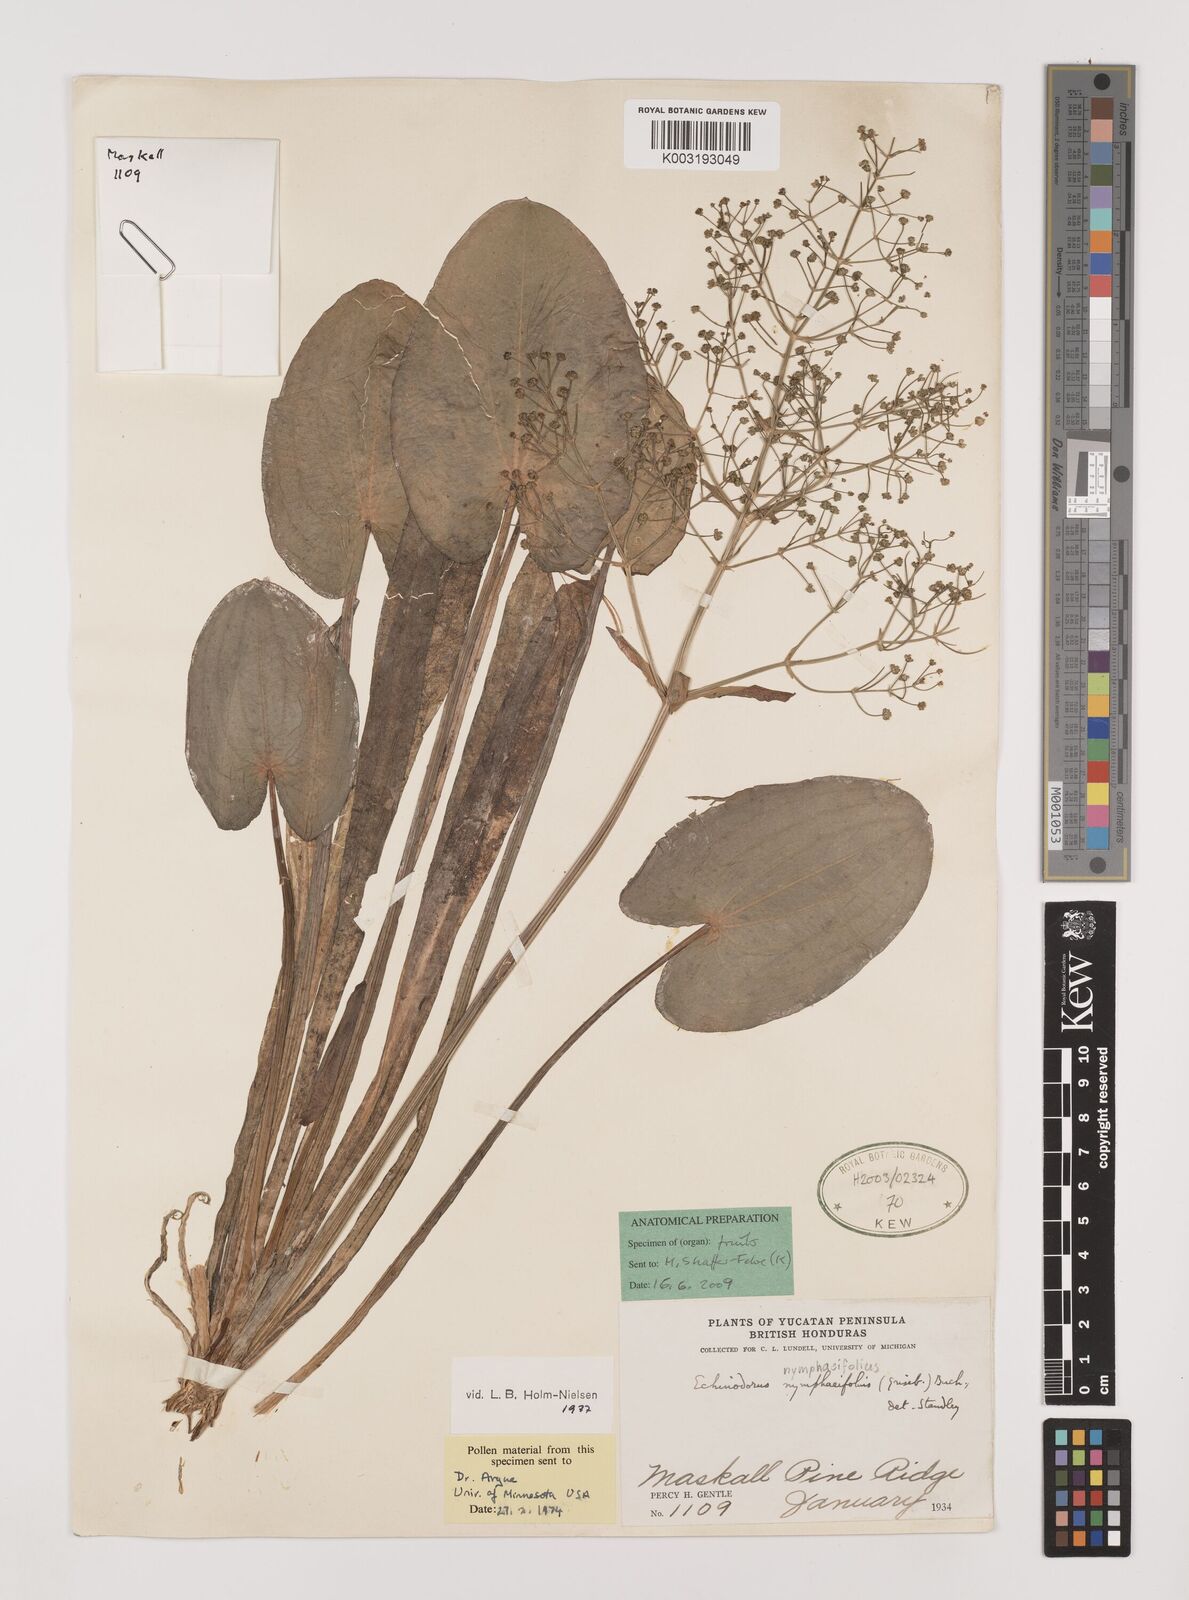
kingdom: Plantae
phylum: Tracheophyta
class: Liliopsida
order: Alismatales
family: Alismataceae
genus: Albidella
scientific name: Albidella nymphaeifolia
